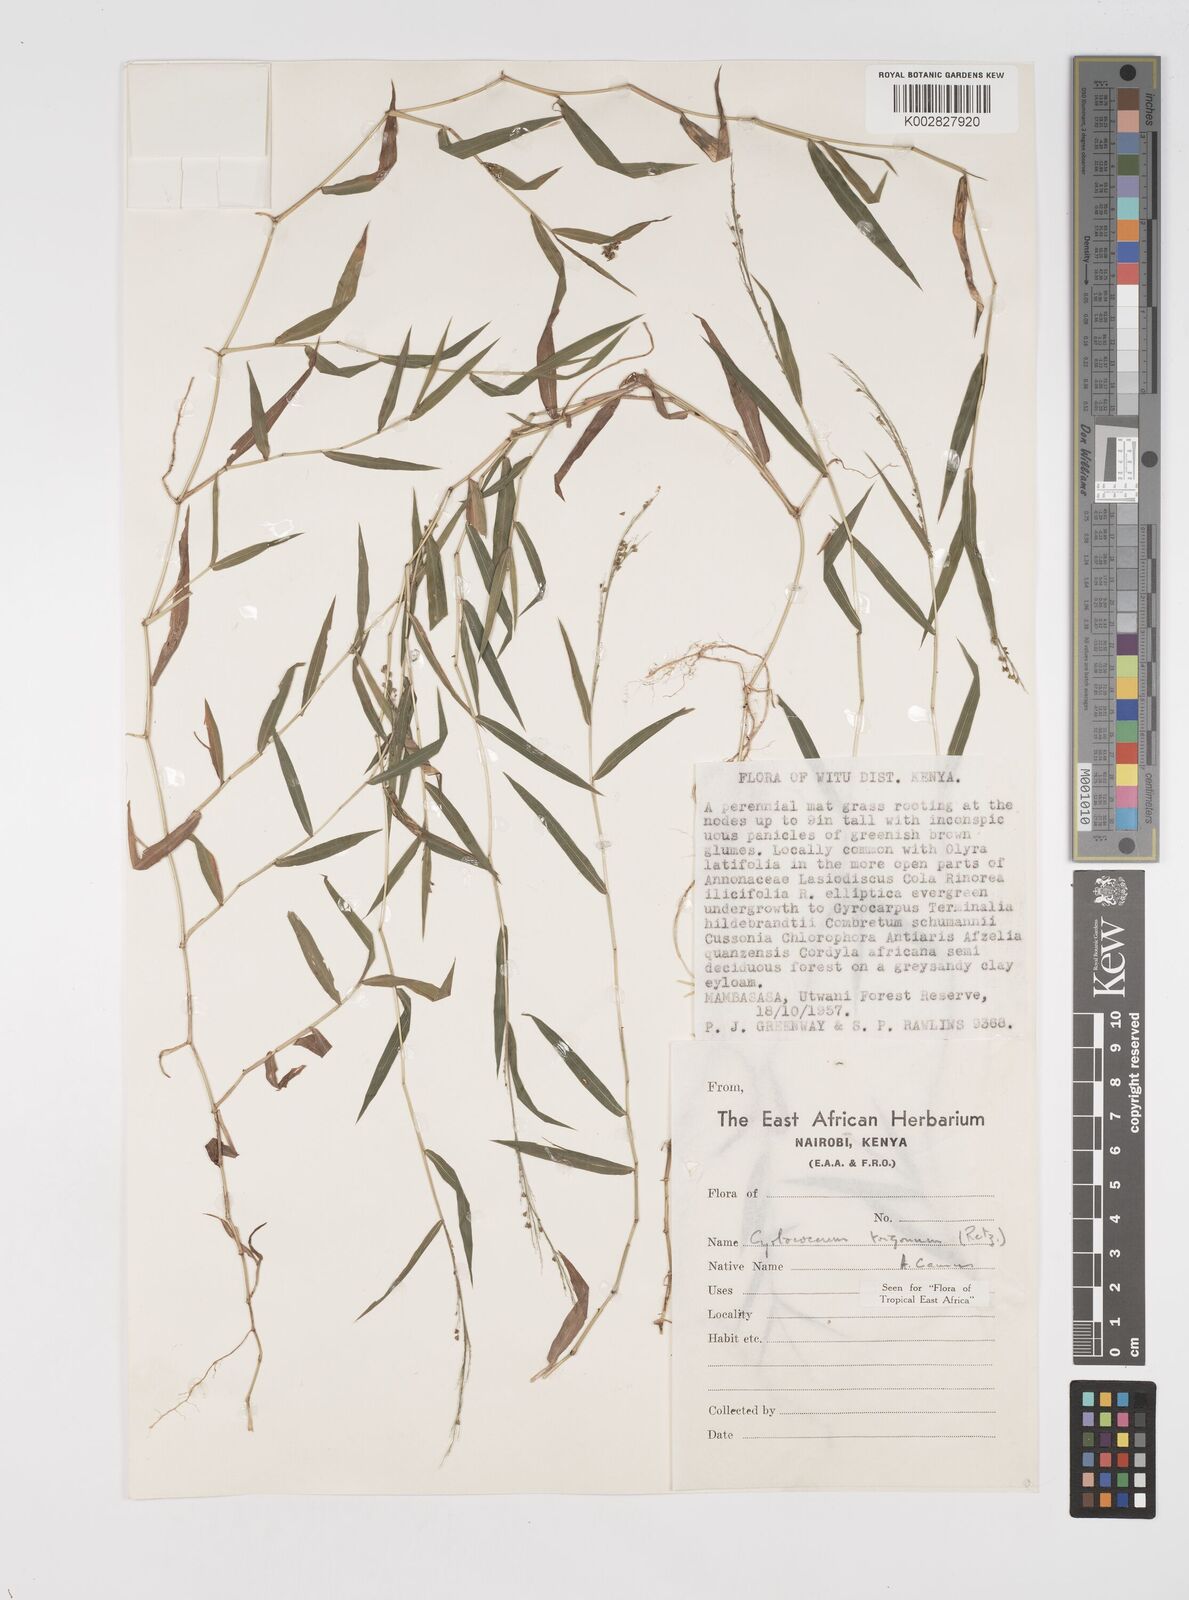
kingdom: Plantae
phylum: Tracheophyta
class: Liliopsida
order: Poales
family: Poaceae
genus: Cyrtococcum
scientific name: Cyrtococcum trigonum
